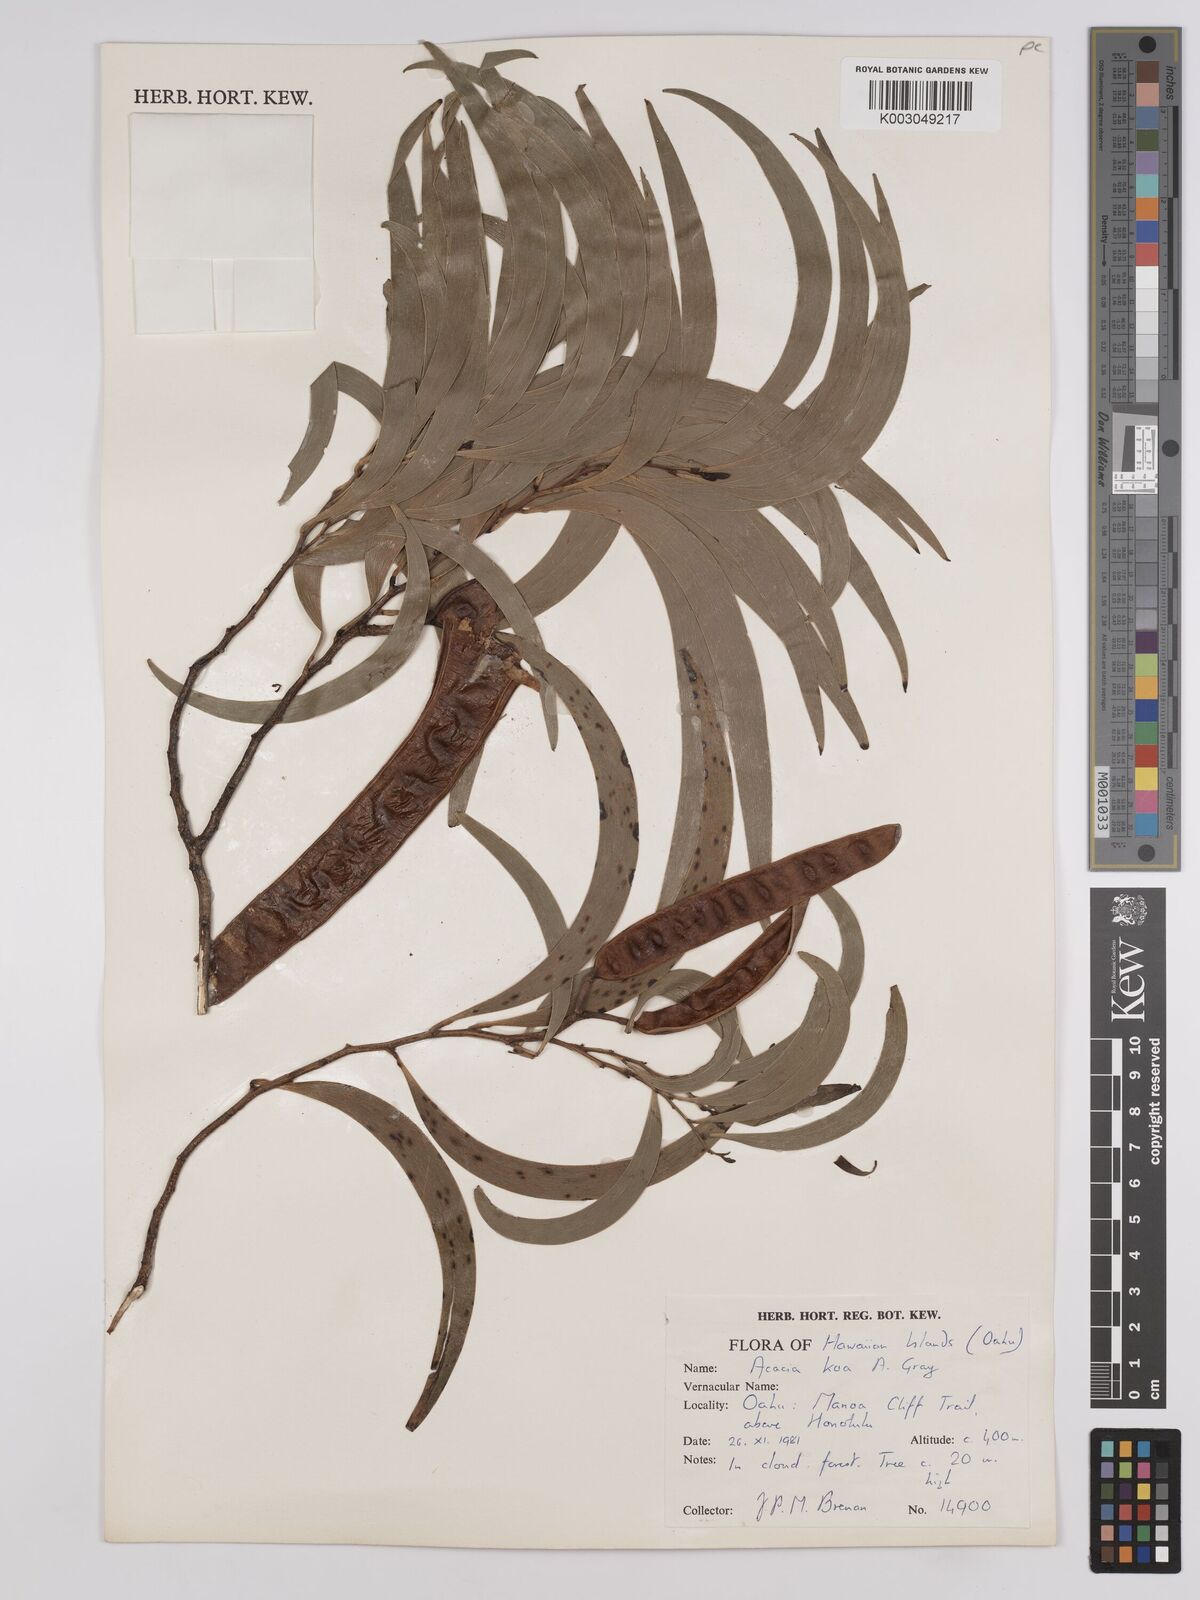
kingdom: Plantae
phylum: Tracheophyta
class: Magnoliopsida
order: Fabales
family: Fabaceae
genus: Acacia
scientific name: Acacia koa
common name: Gray koa
